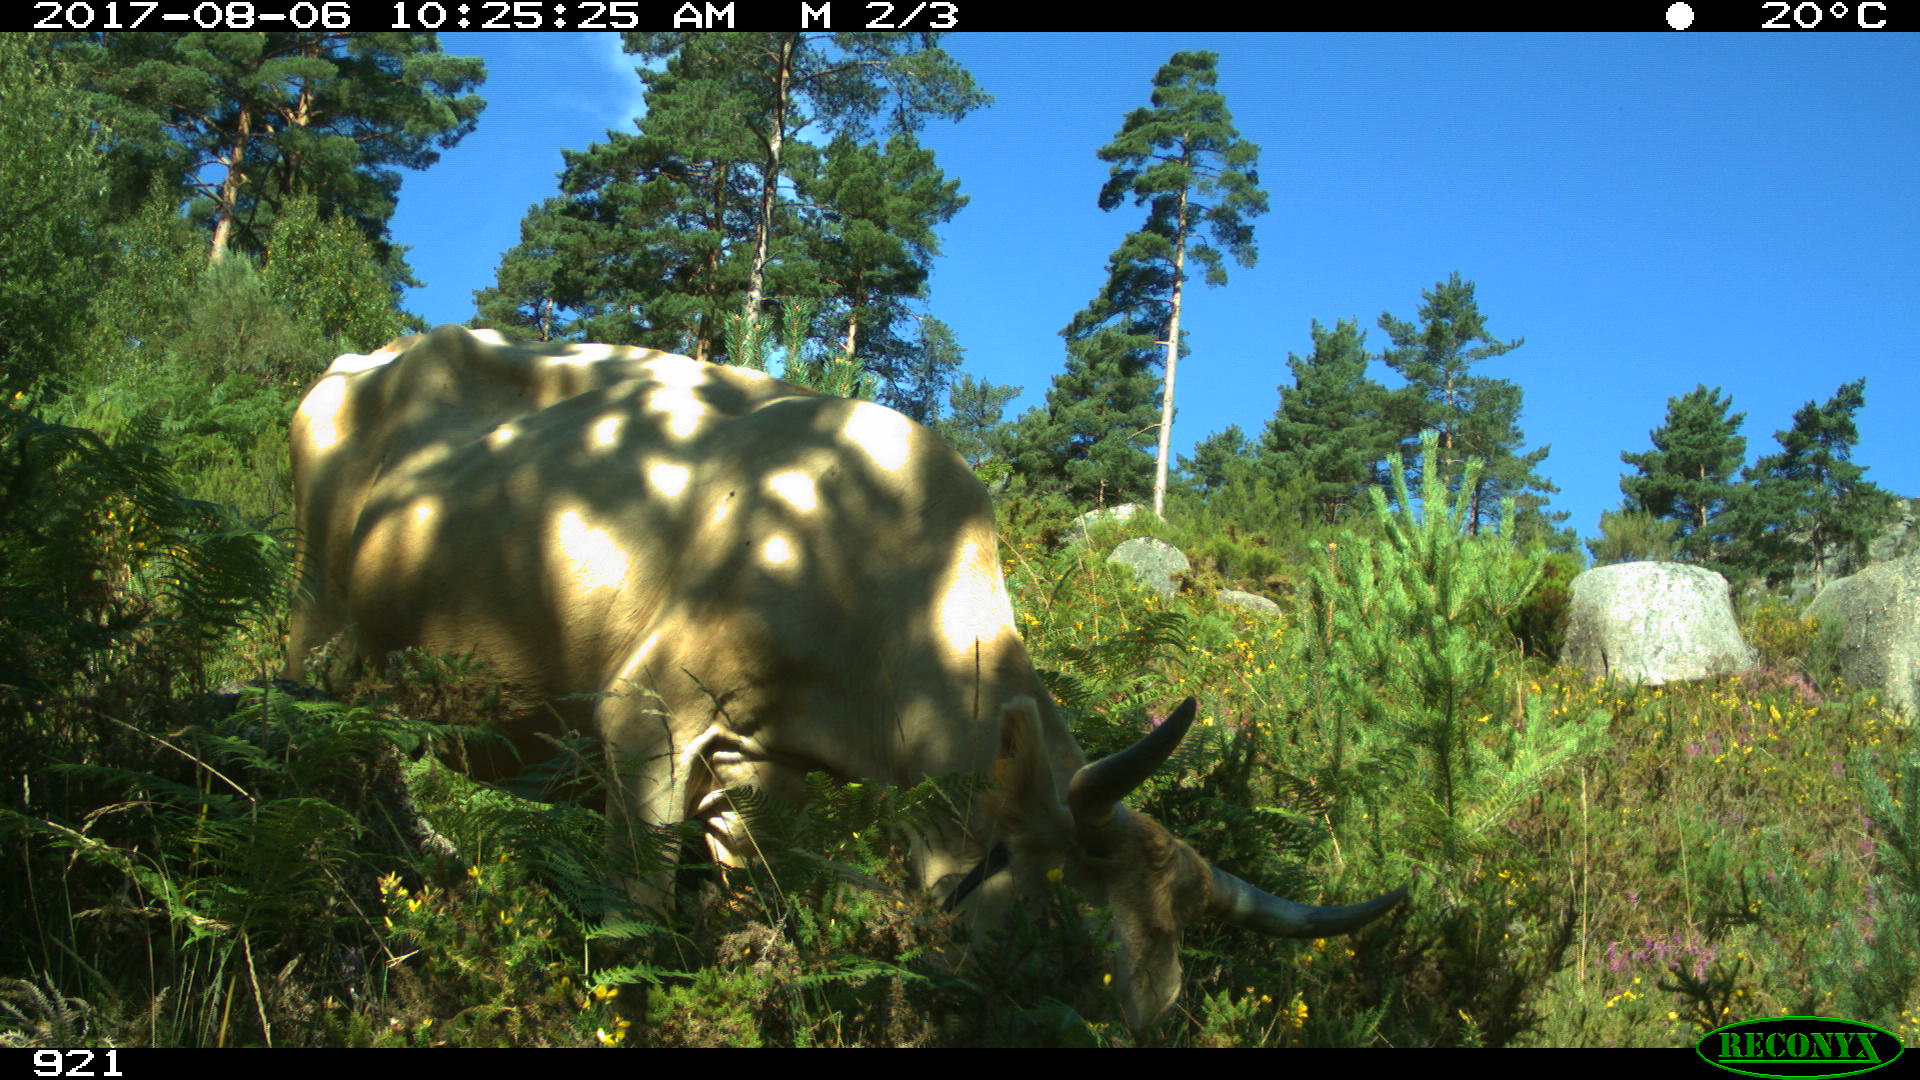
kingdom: Animalia
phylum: Chordata
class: Mammalia
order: Artiodactyla
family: Bovidae
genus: Bos
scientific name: Bos taurus
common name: Domesticated cattle
